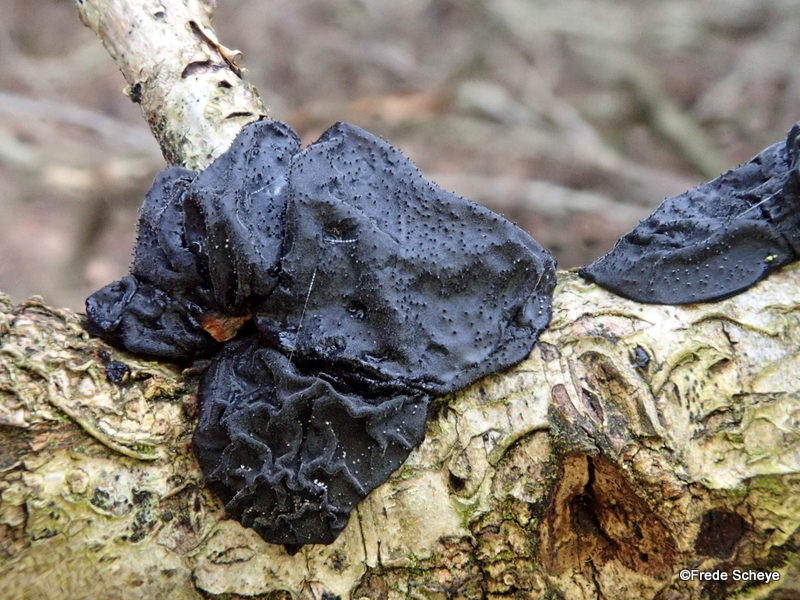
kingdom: Fungi
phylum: Basidiomycota
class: Agaricomycetes
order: Auriculariales
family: Auriculariaceae
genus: Exidia
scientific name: Exidia glandulosa
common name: ege-bævretop
